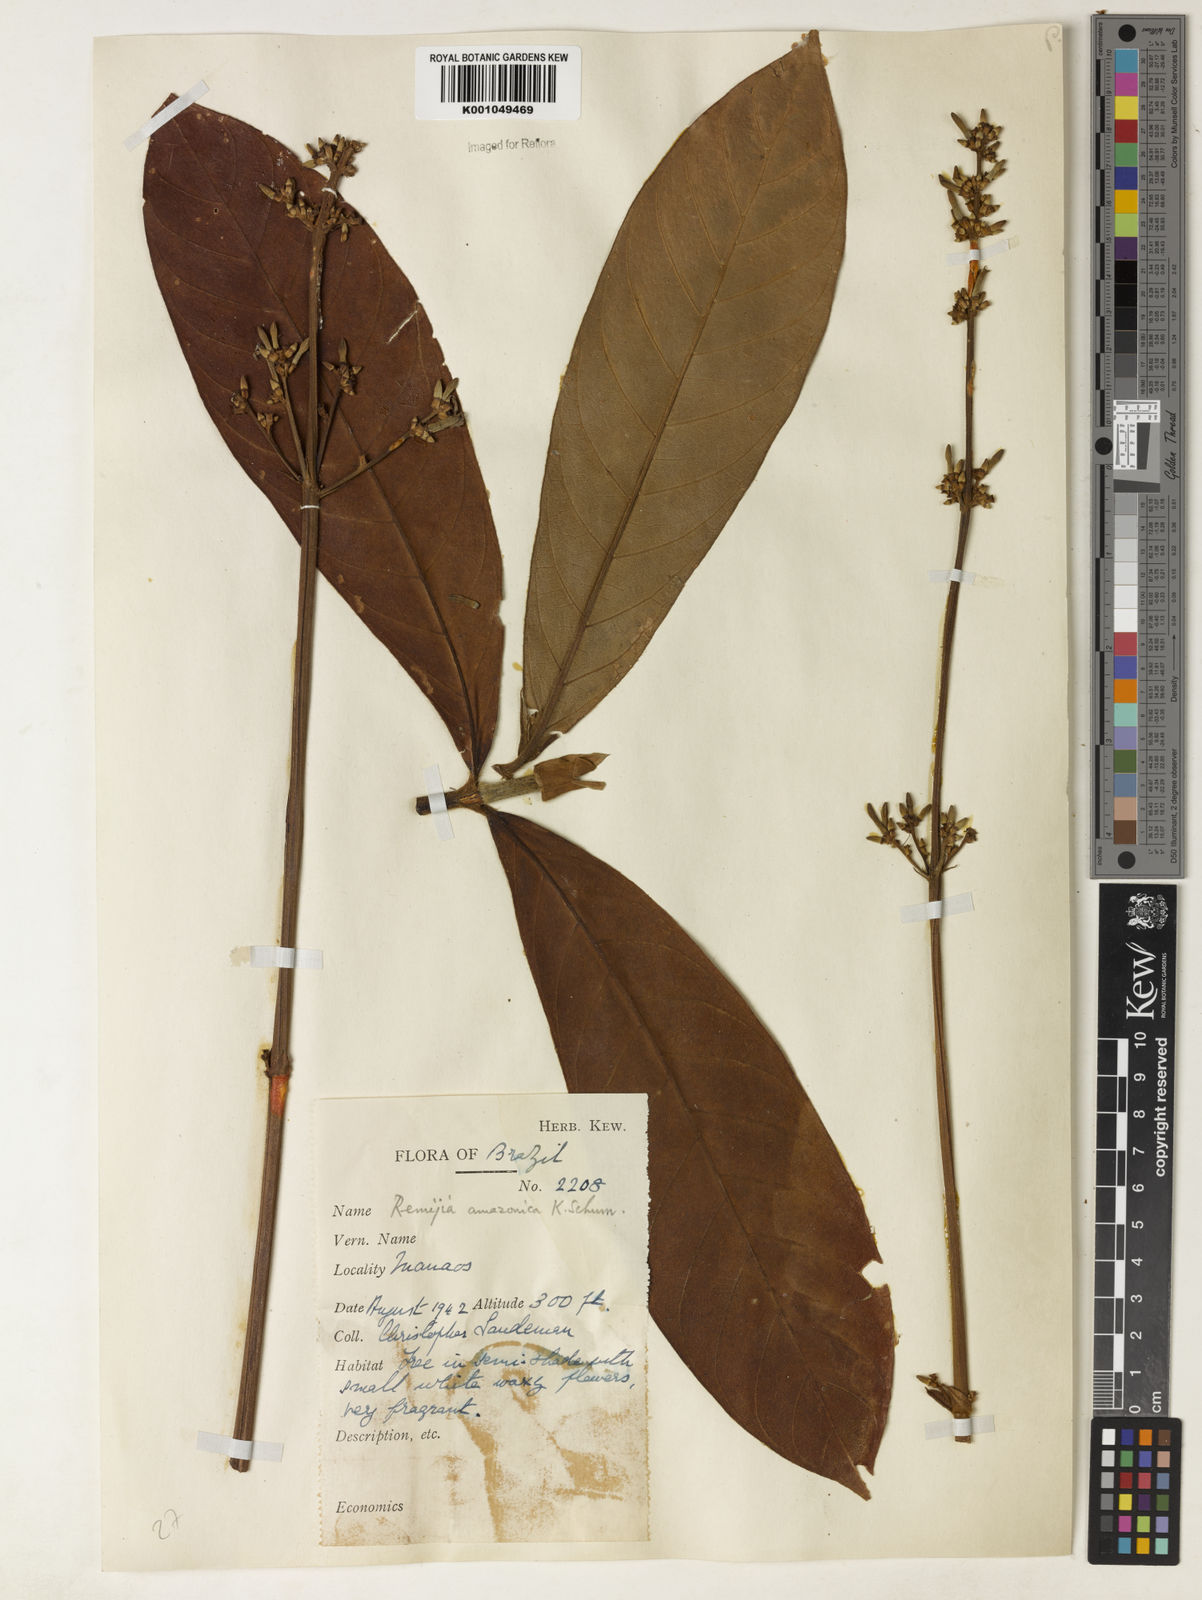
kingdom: Plantae
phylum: Tracheophyta
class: Magnoliopsida
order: Gentianales
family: Rubiaceae
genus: Remijia
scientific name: Remijia amazonica
